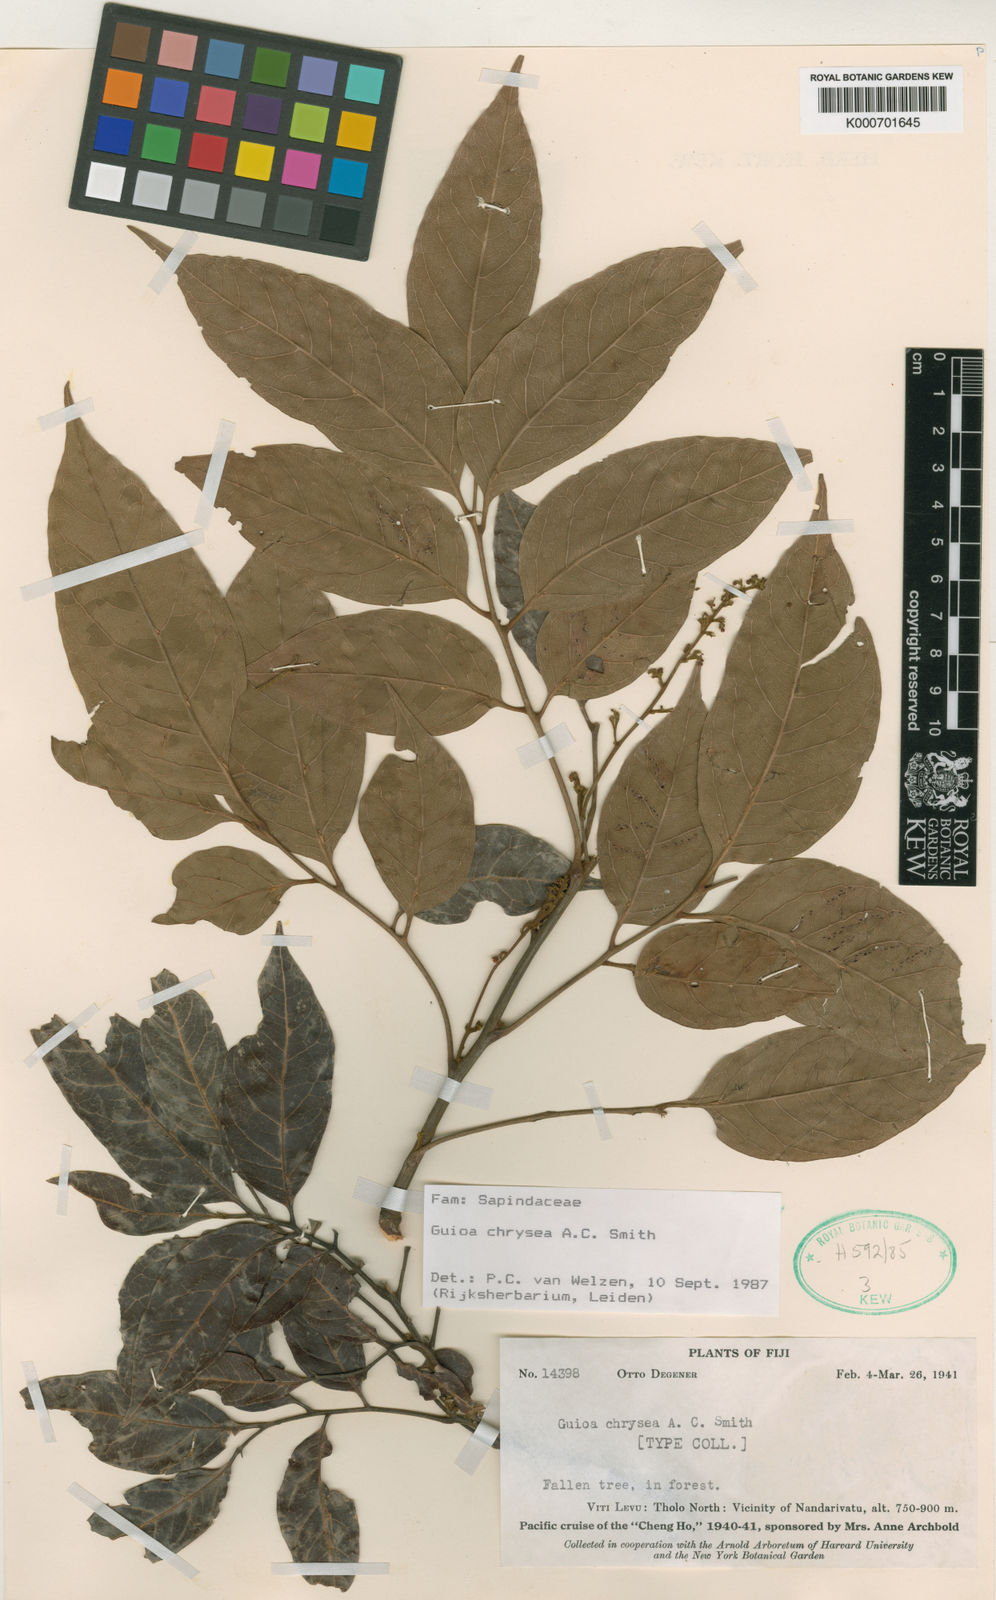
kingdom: Plantae
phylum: Tracheophyta
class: Magnoliopsida
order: Sapindales
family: Sapindaceae
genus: Guioa
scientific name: Guioa chrysea
